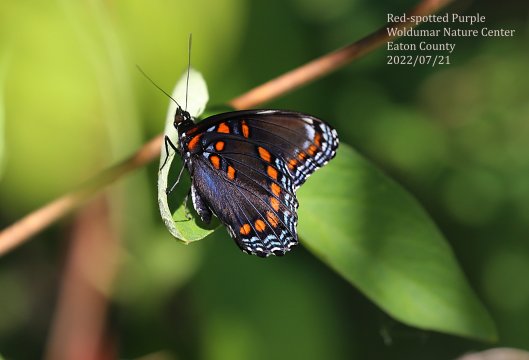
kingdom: Animalia
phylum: Arthropoda
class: Insecta
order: Lepidoptera
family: Nymphalidae
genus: Limenitis
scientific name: Limenitis arthemis
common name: Red-spotted Admiral
